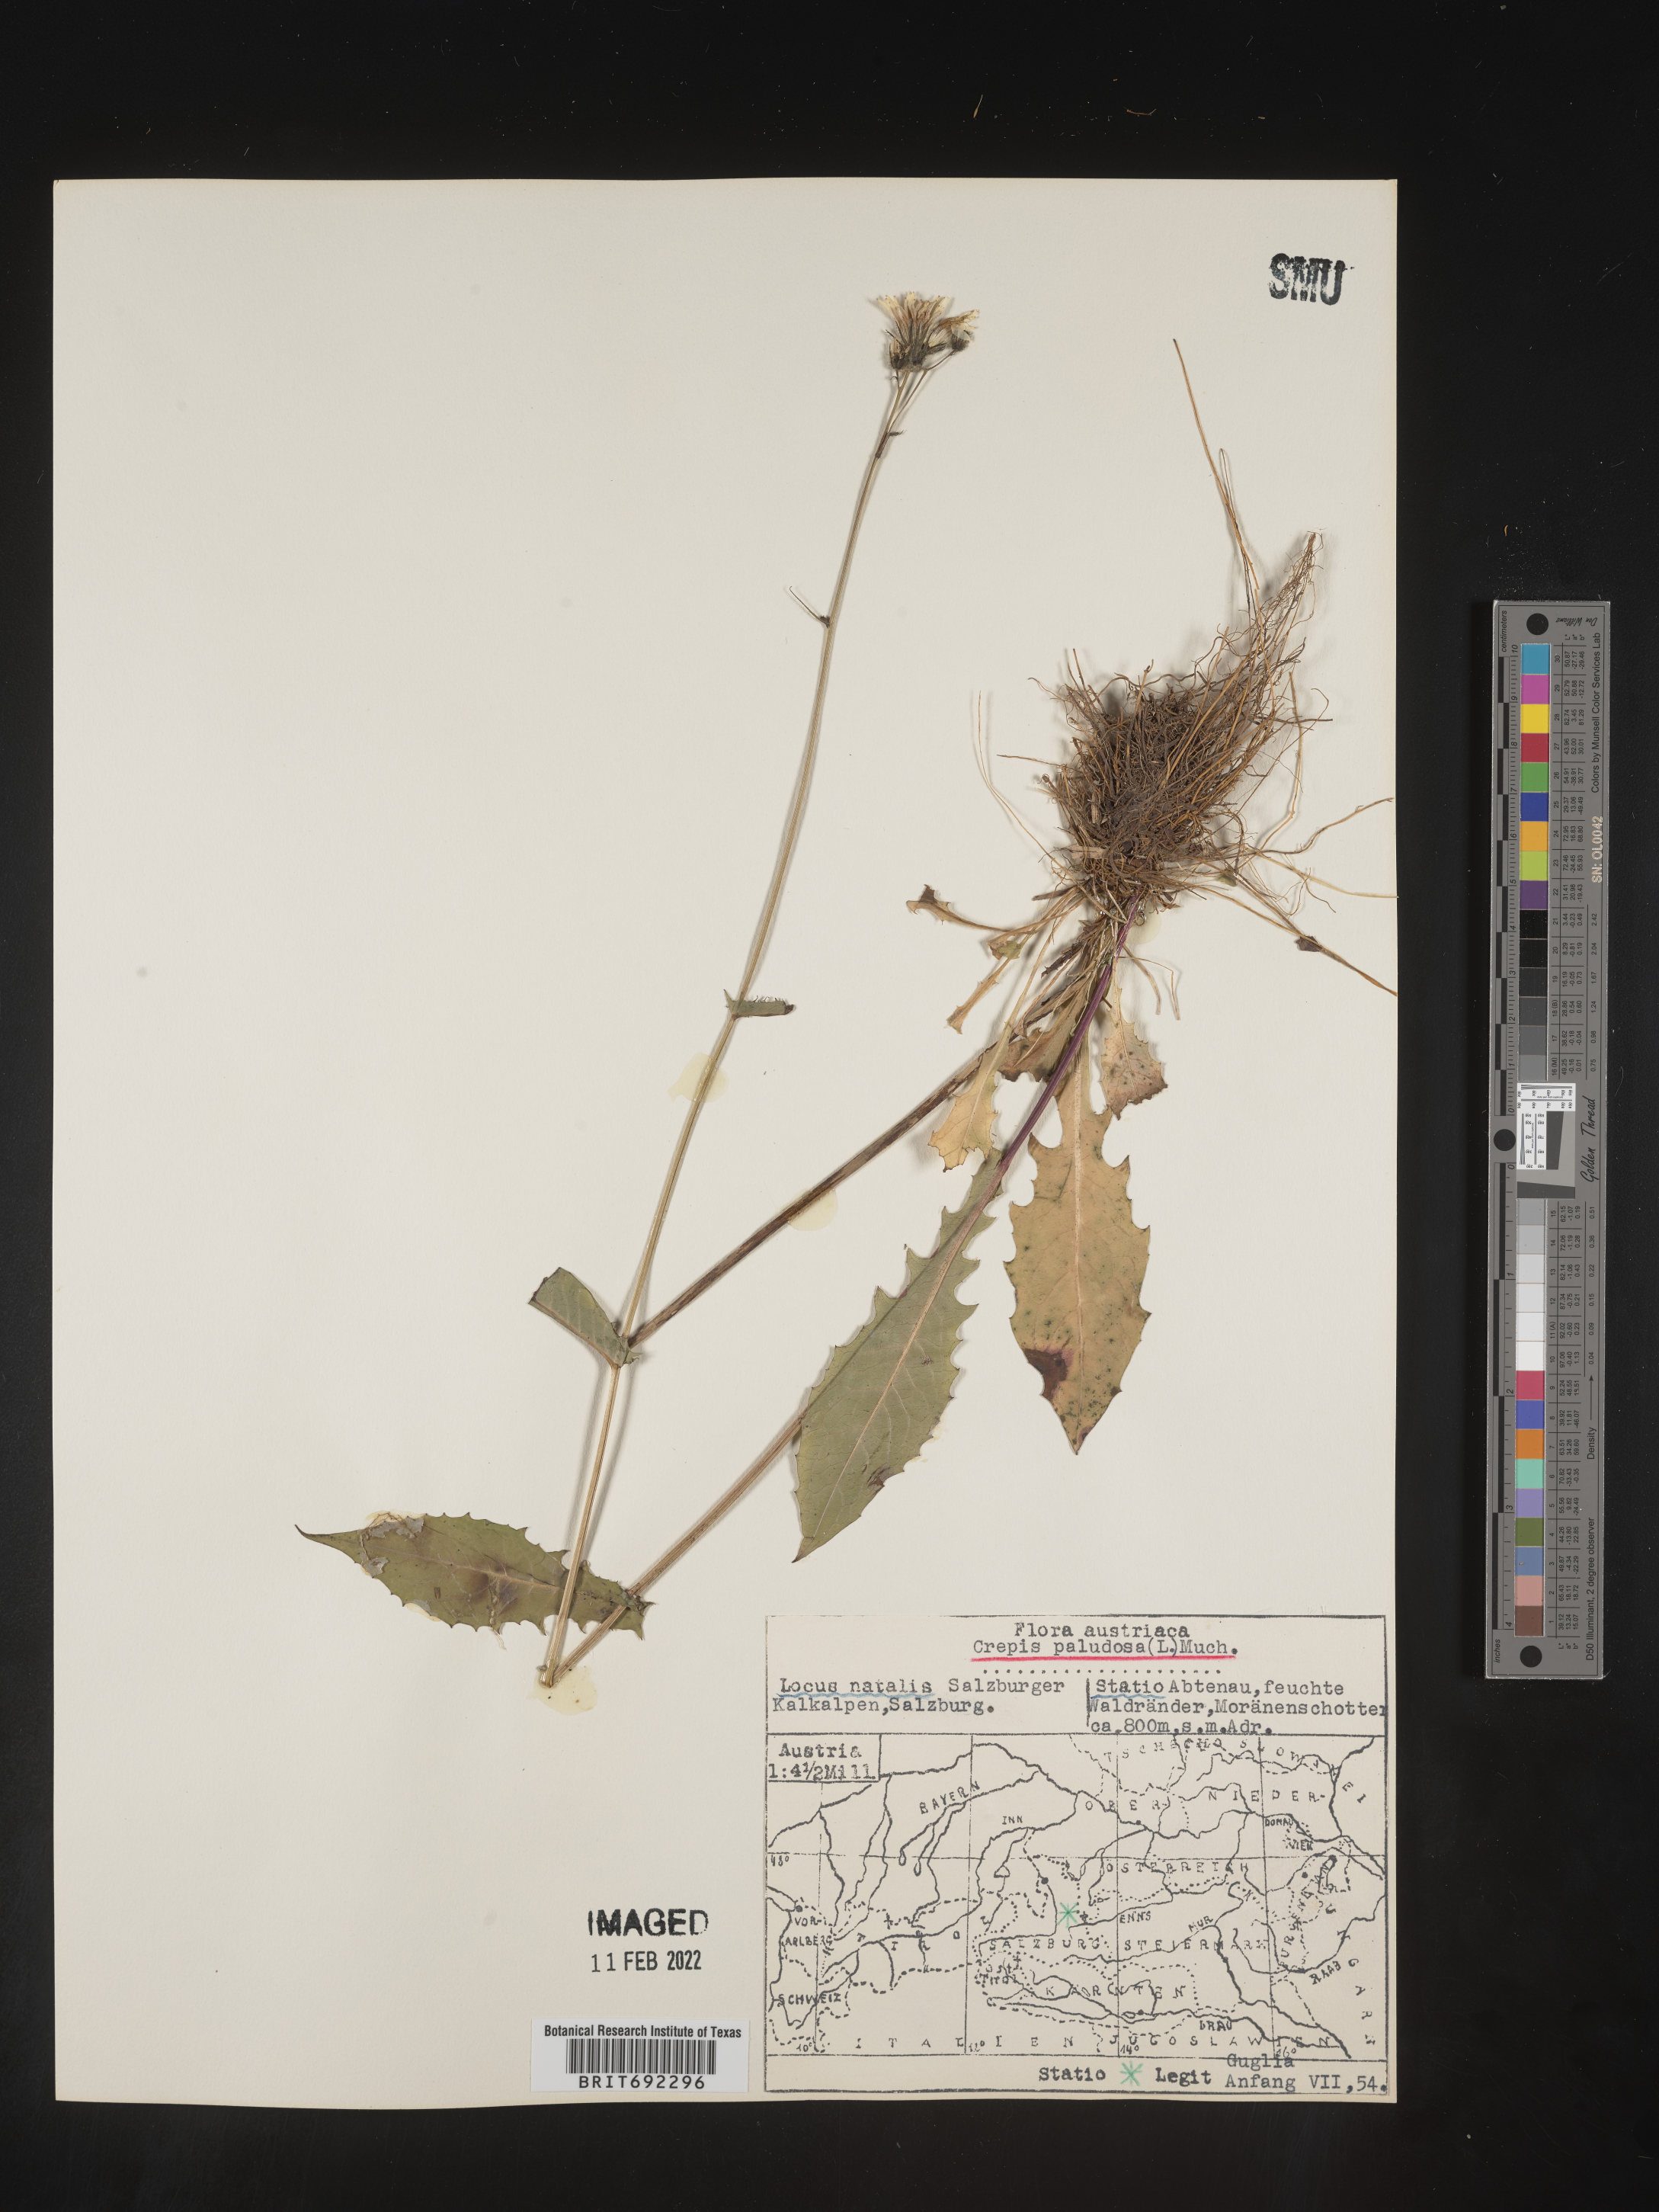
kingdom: Plantae
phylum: Tracheophyta
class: Magnoliopsida
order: Asterales
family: Asteraceae
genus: Crepis
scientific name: Crepis
